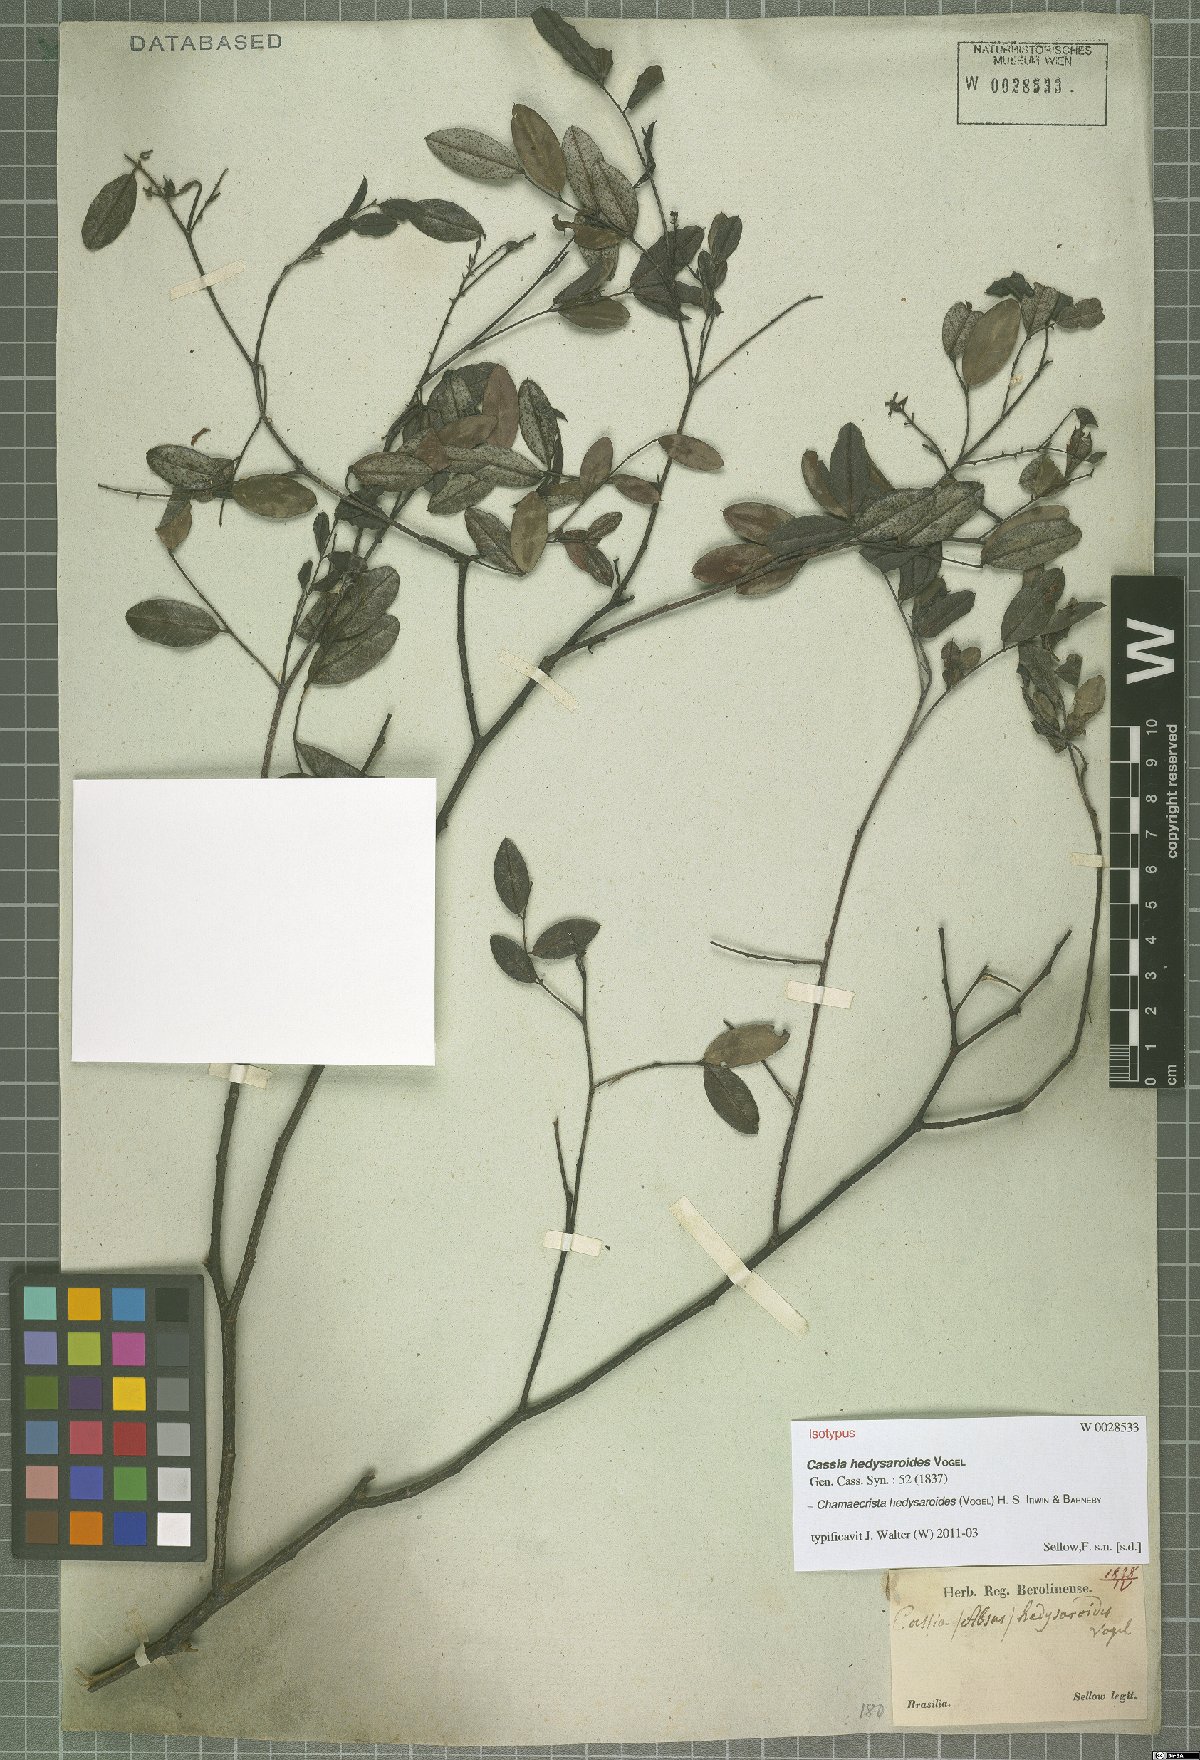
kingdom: Plantae
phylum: Tracheophyta
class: Magnoliopsida
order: Fabales
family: Fabaceae
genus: Chamaecrista
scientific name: Chamaecrista hedysaroides
